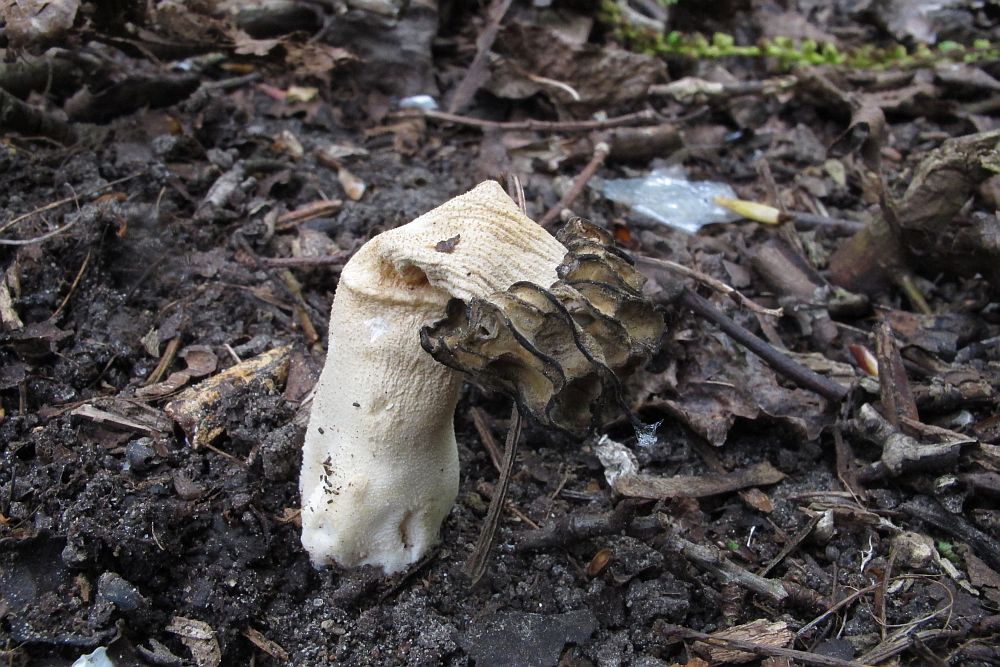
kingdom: Fungi
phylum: Ascomycota
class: Pezizomycetes
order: Pezizales
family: Morchellaceae
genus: Morchella
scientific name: Morchella semilibera
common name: hætte-morkel
